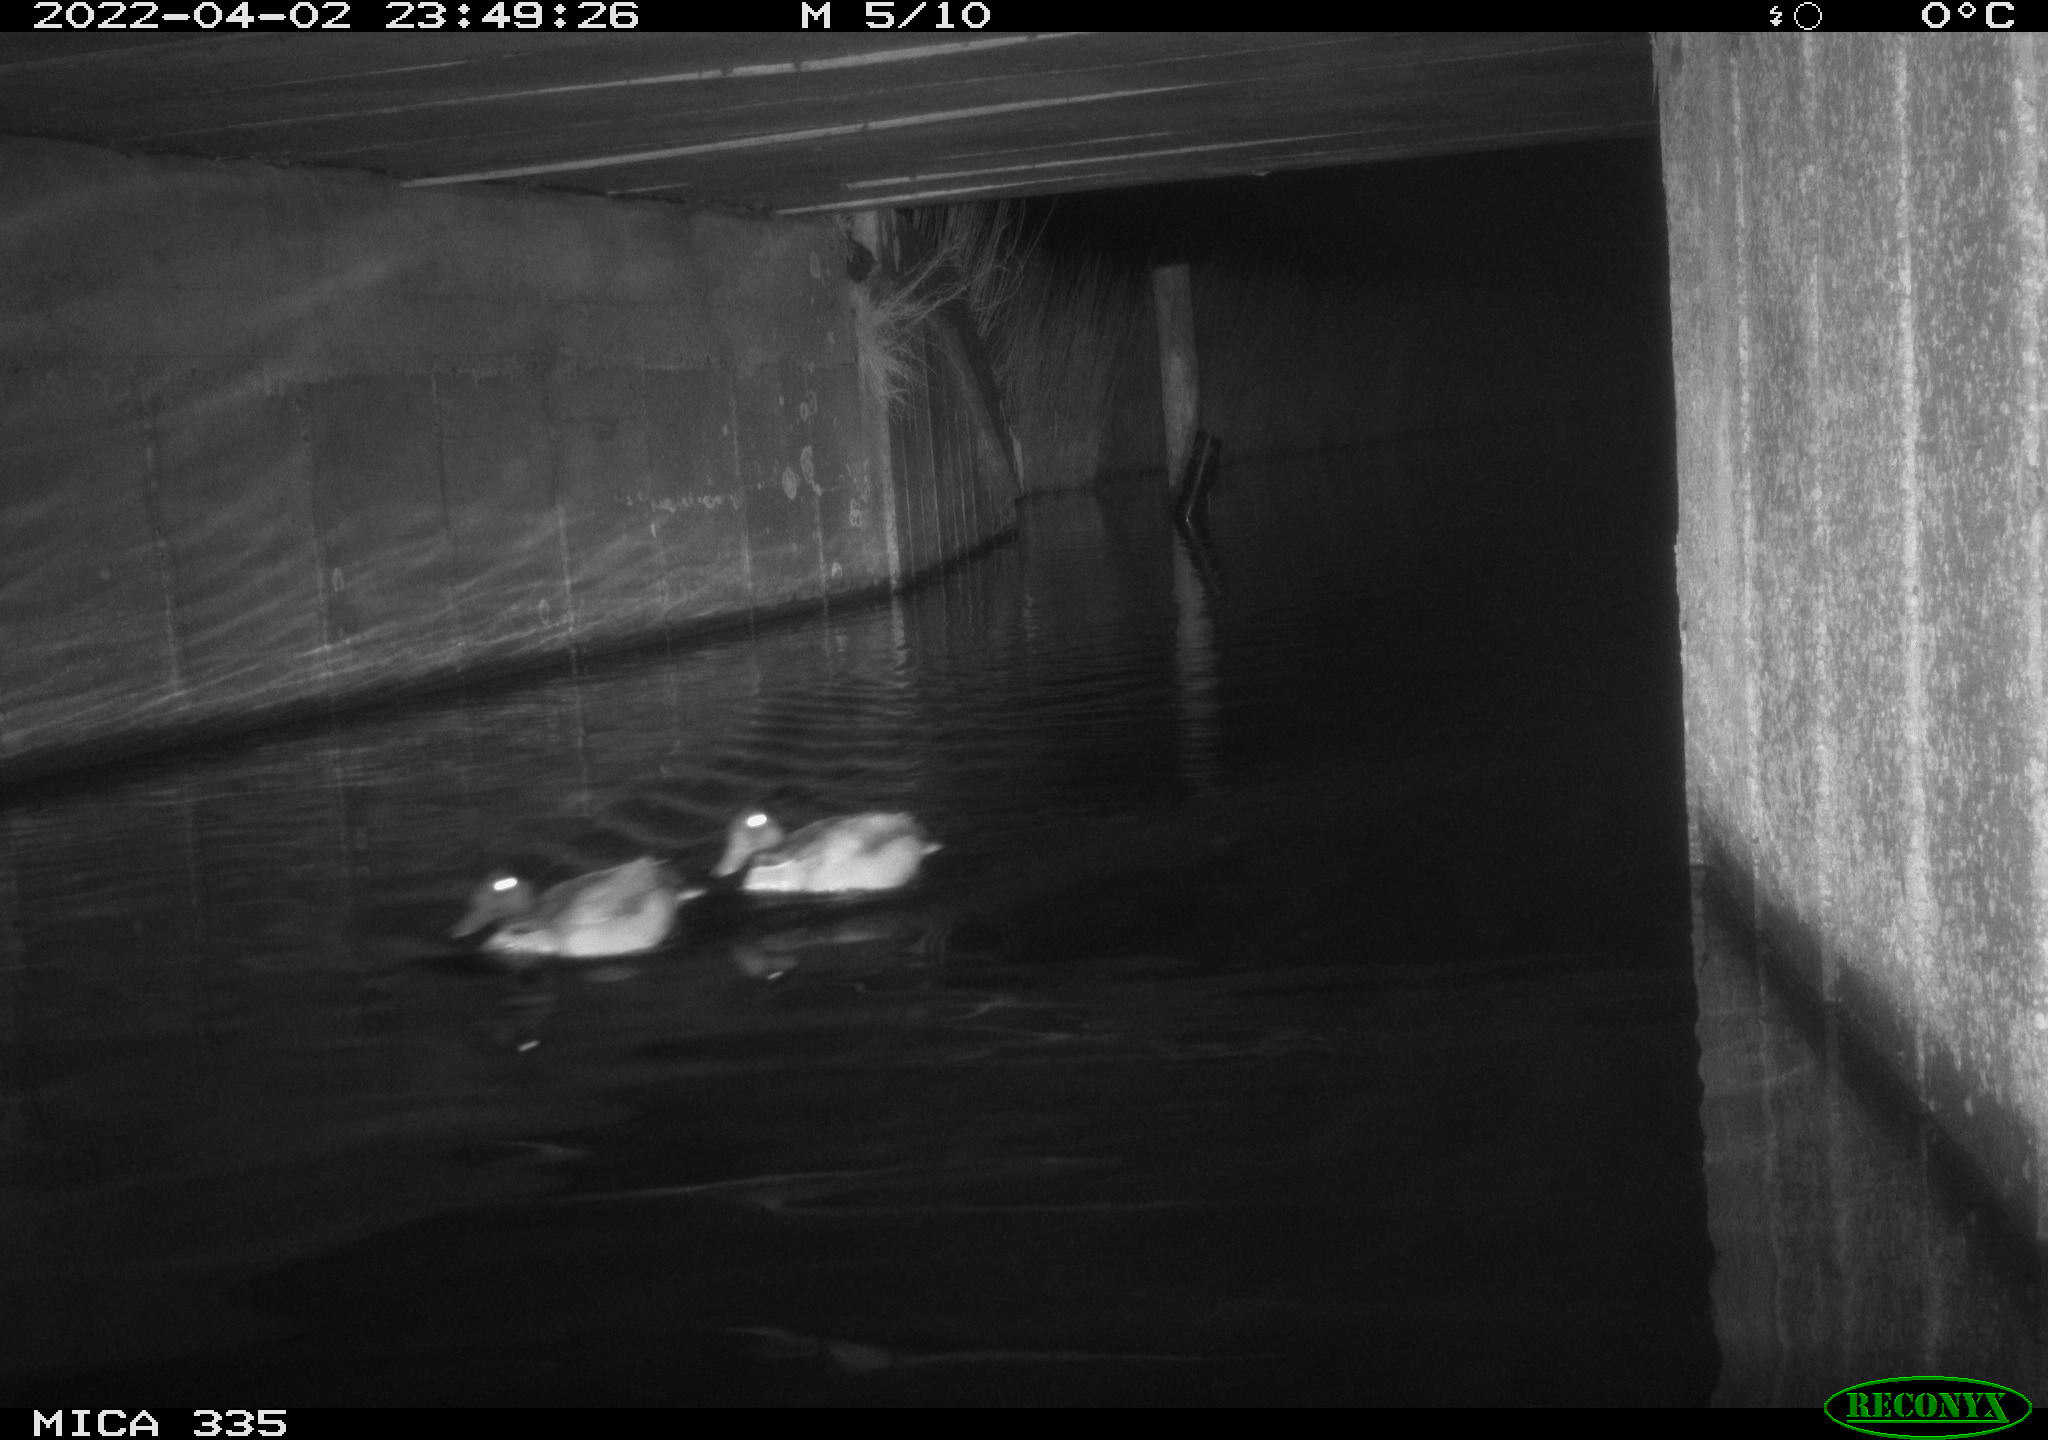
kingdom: Animalia
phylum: Chordata
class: Aves
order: Anseriformes
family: Anatidae
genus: Anas
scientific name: Anas platyrhynchos
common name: Mallard
